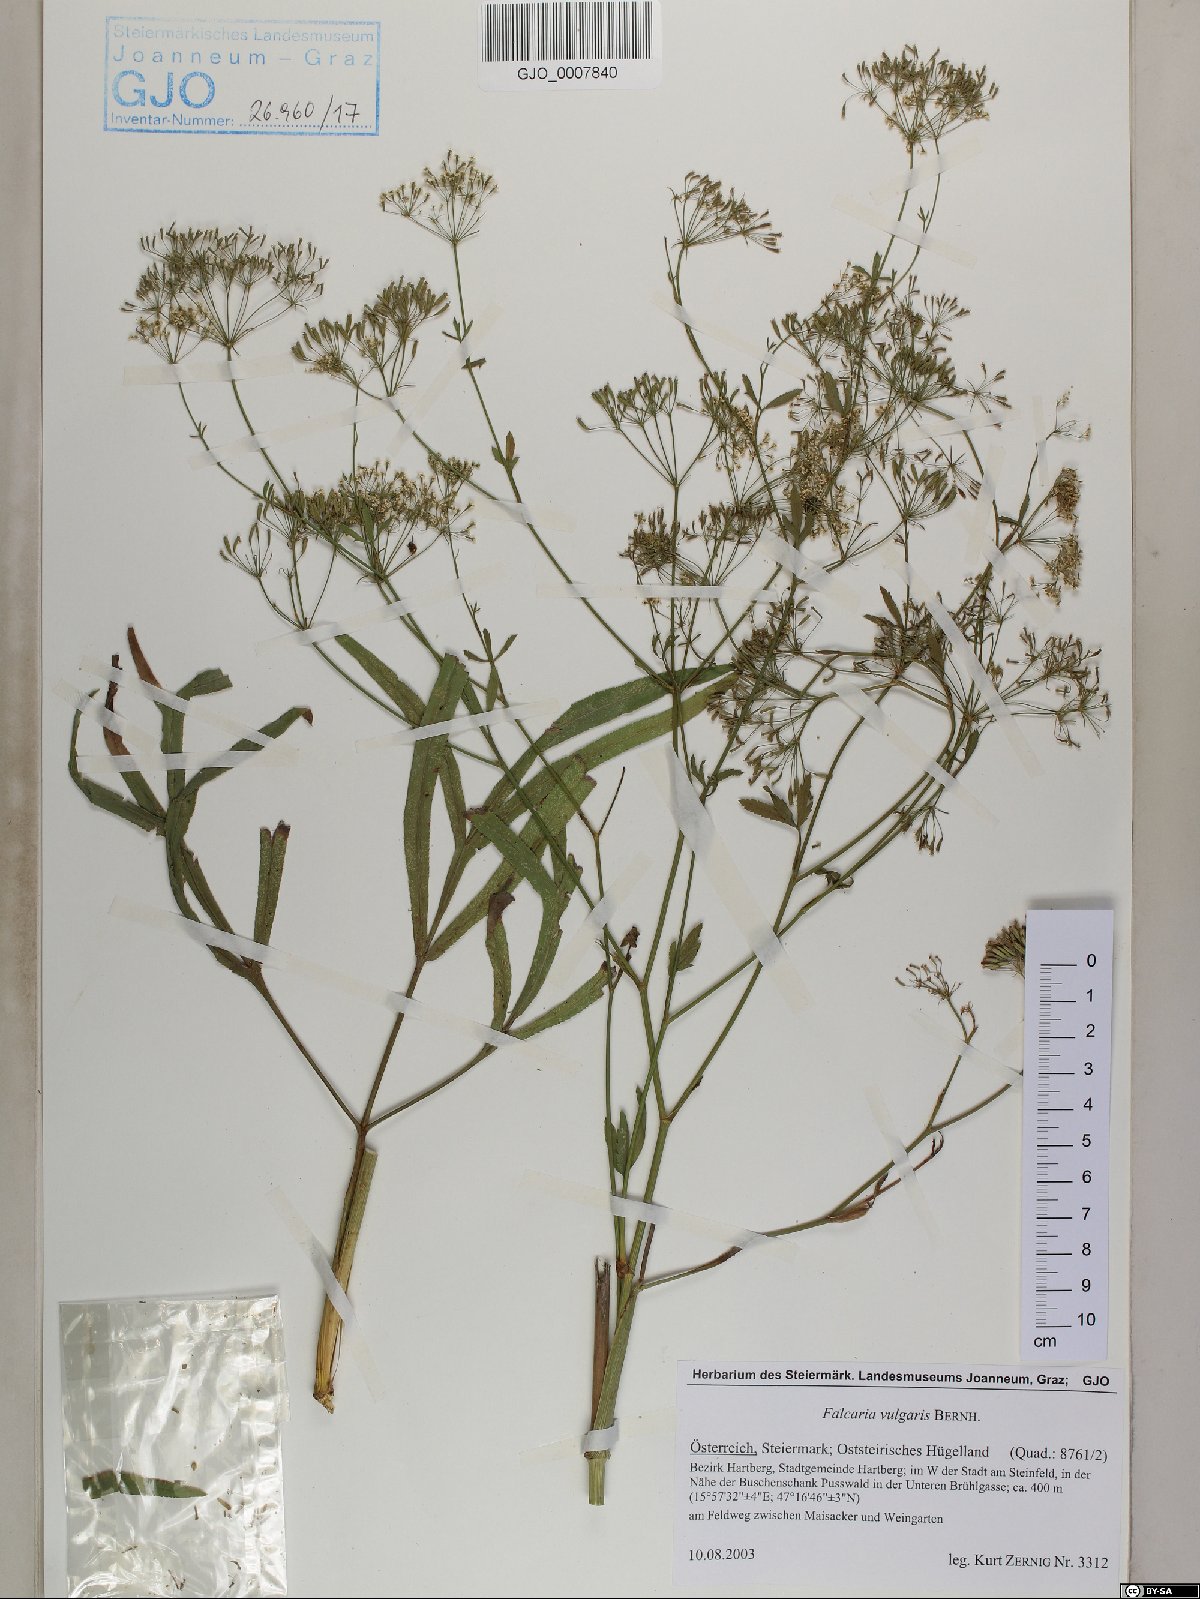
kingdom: Plantae
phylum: Tracheophyta
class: Magnoliopsida
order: Apiales
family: Apiaceae
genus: Falcaria
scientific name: Falcaria vulgaris
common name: Longleaf
